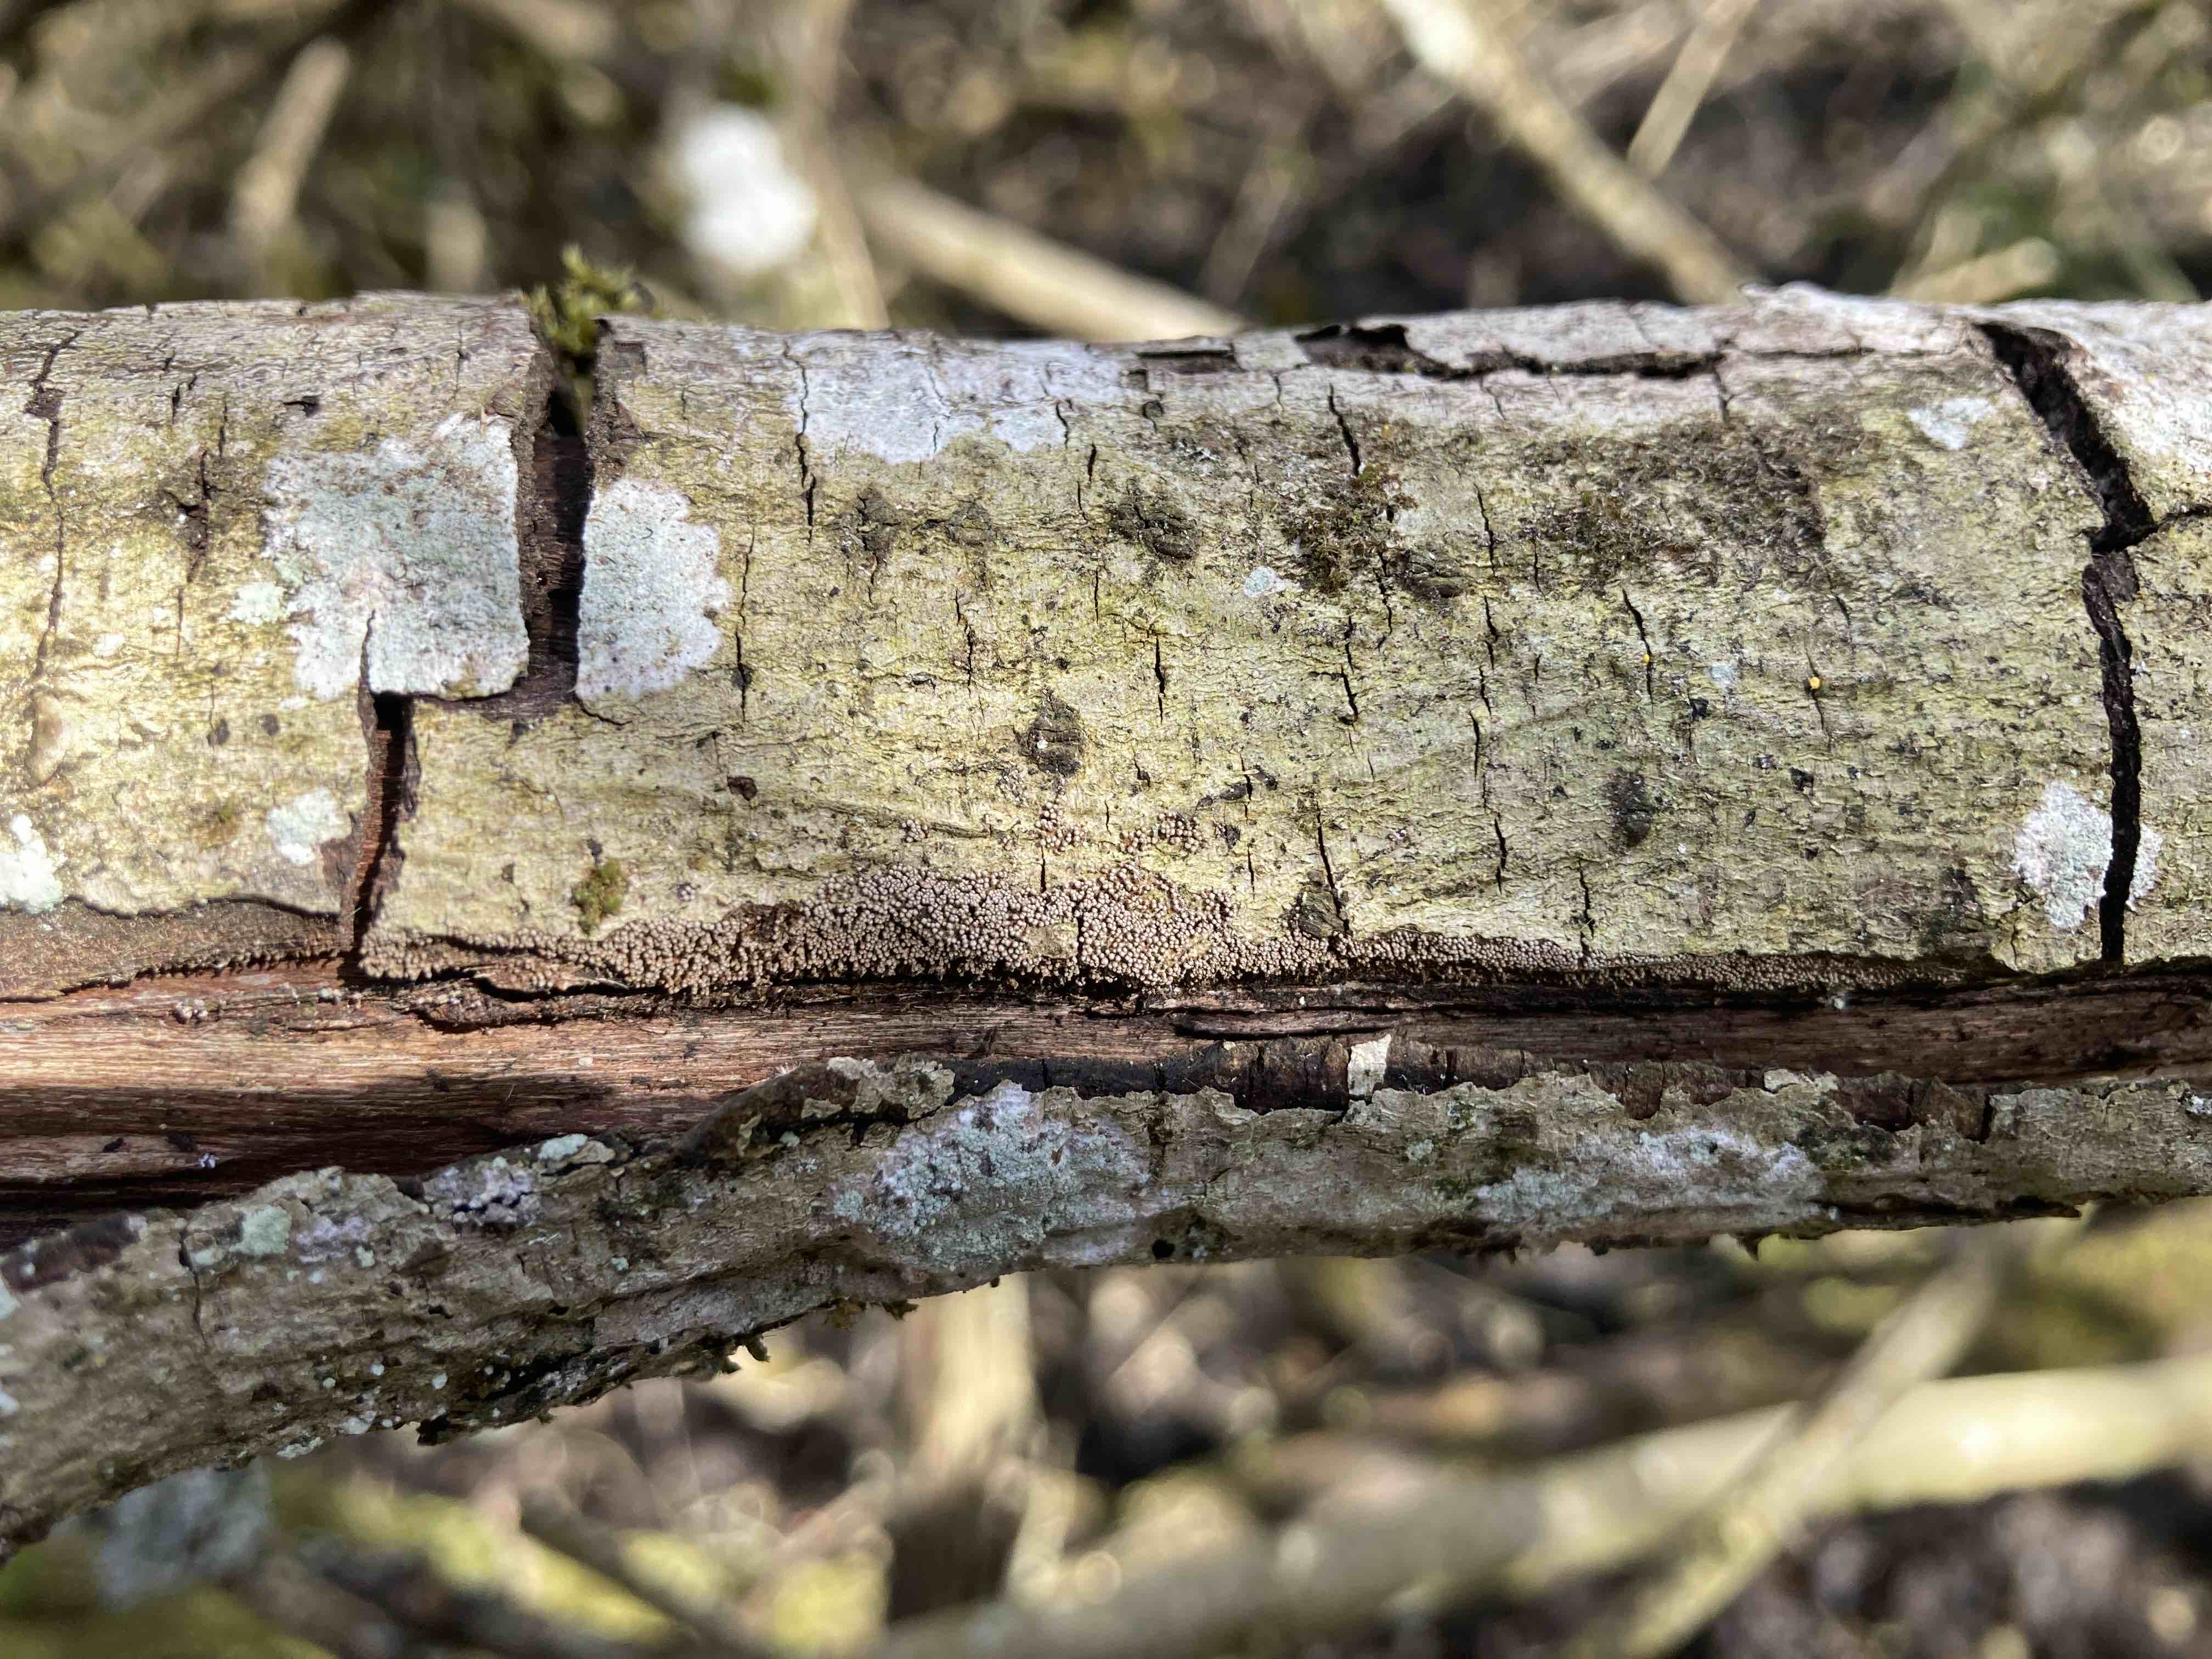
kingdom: Fungi
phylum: Basidiomycota
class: Agaricomycetes
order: Agaricales
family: Niaceae
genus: Merismodes
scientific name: Merismodes anomala
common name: almindelig læderskål
